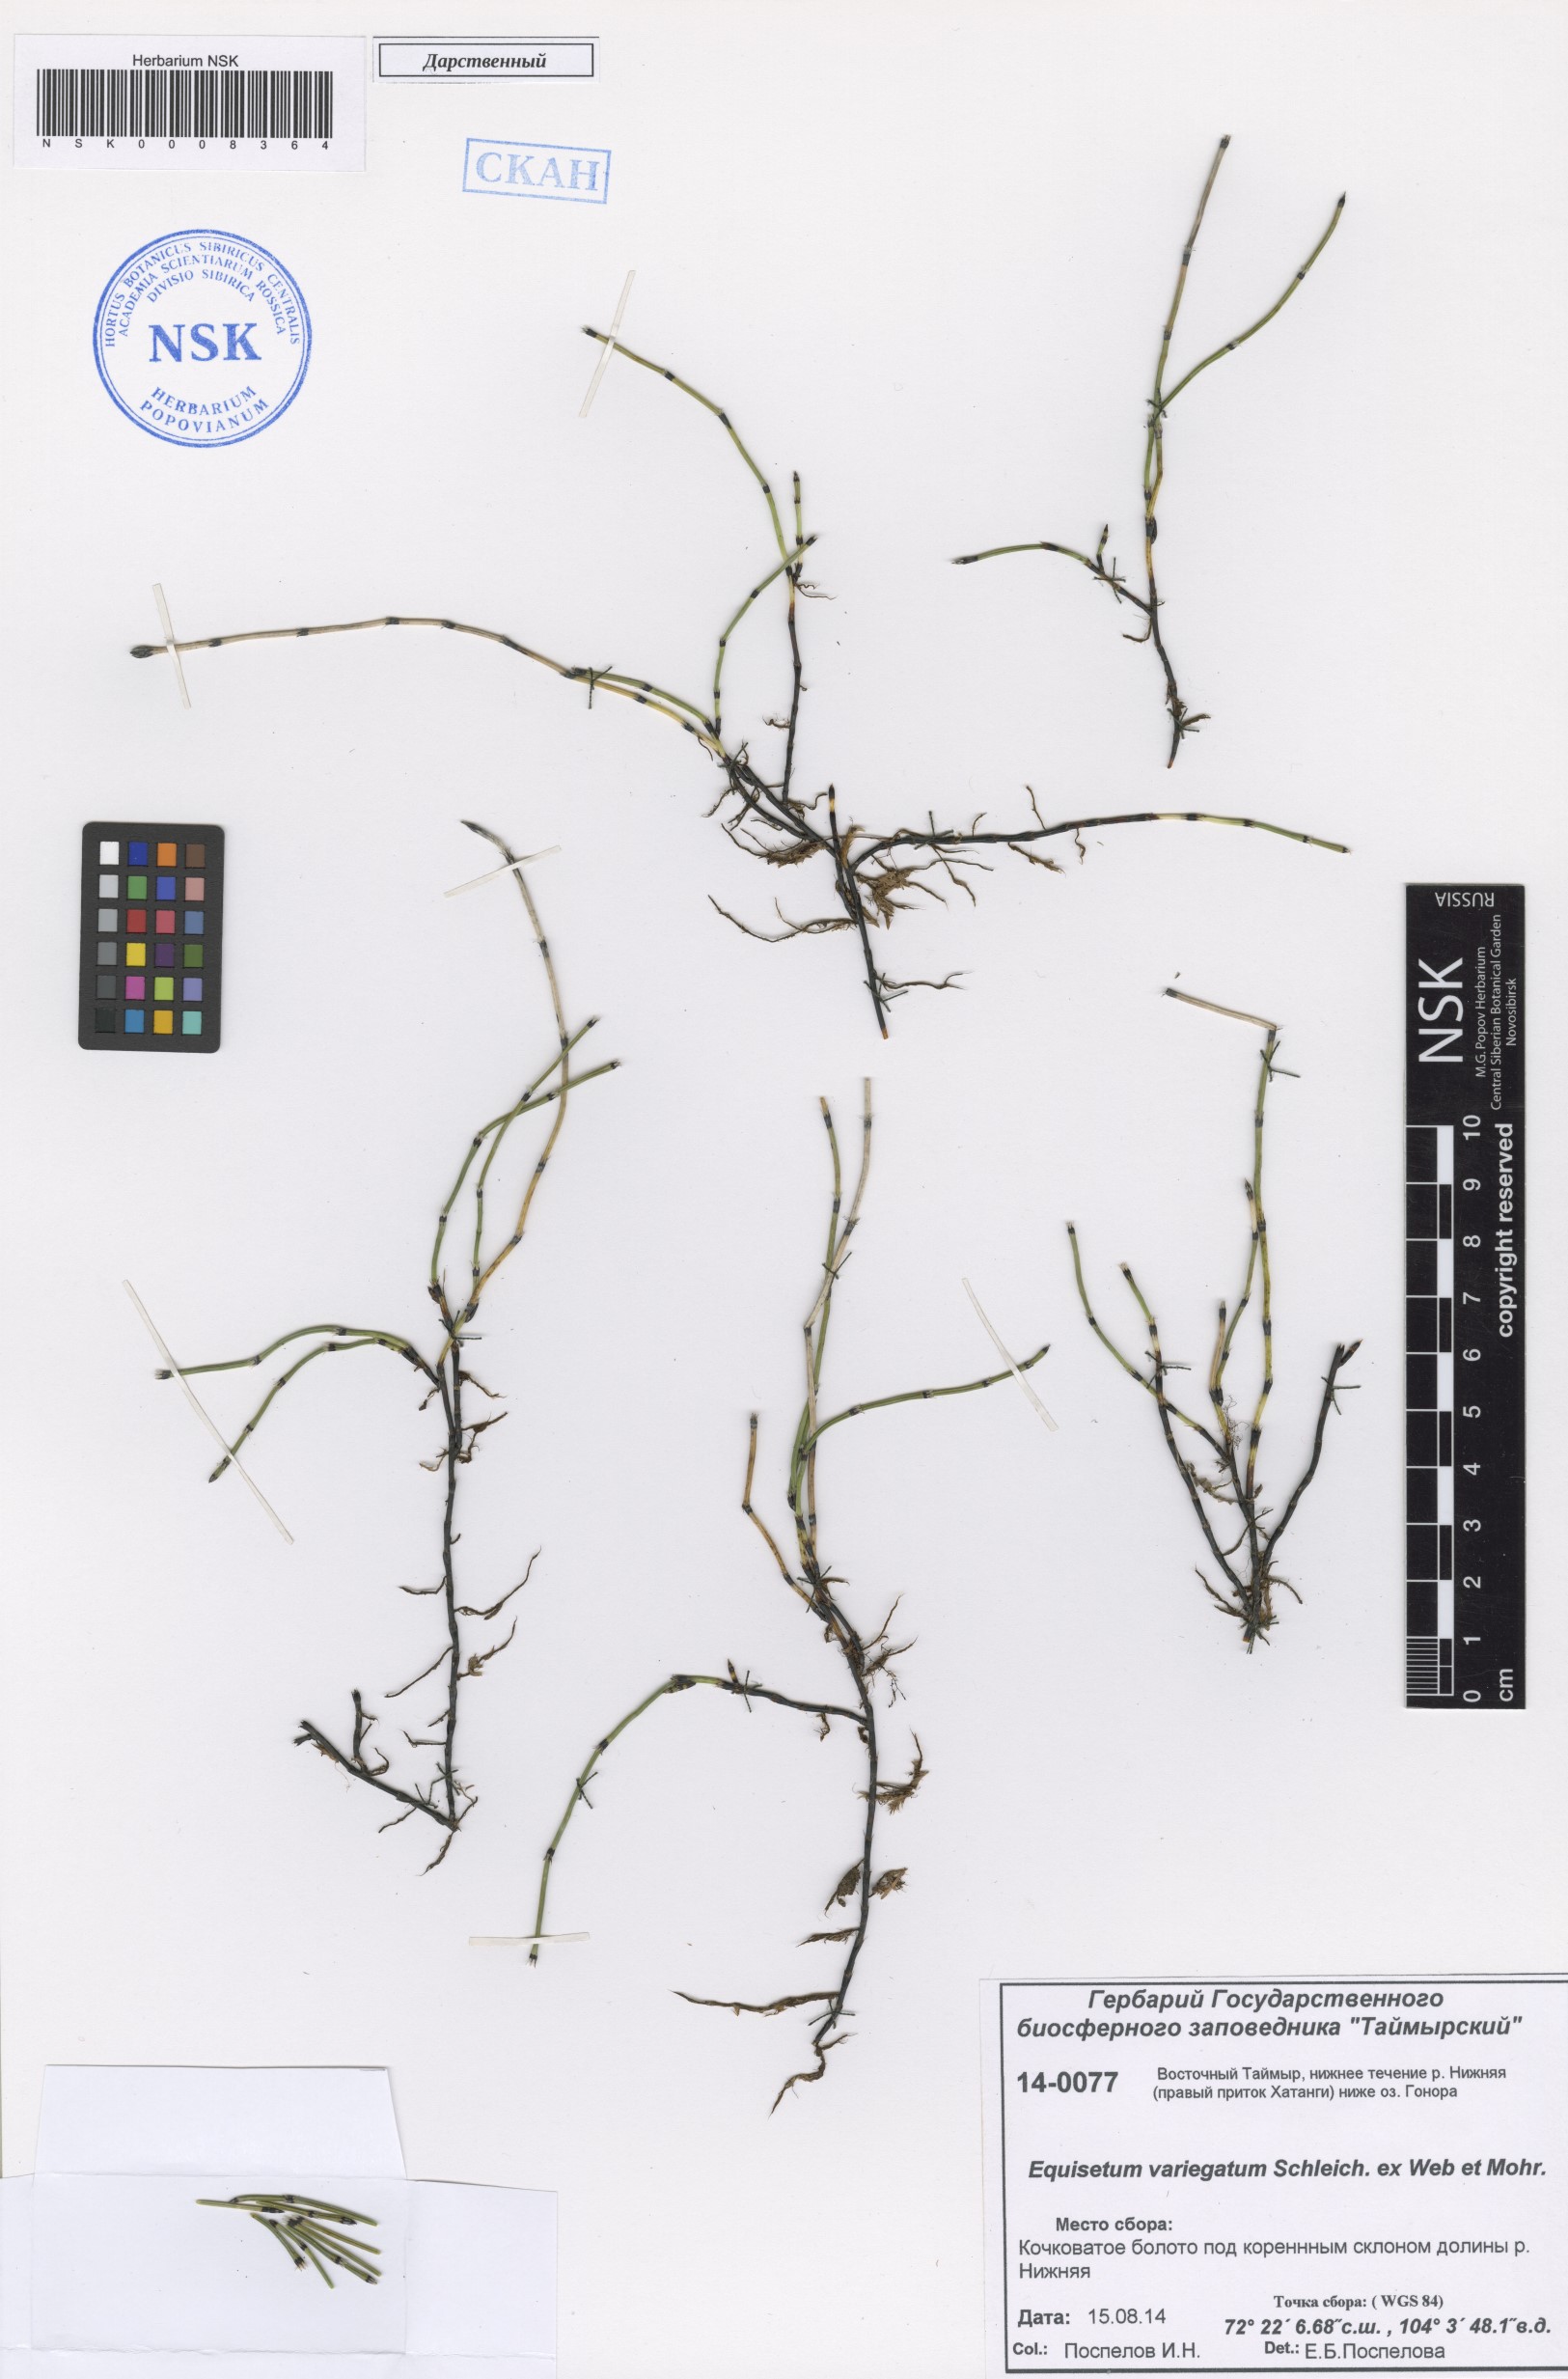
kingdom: Plantae
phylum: Tracheophyta
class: Polypodiopsida
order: Equisetales
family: Equisetaceae
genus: Equisetum
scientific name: Equisetum variegatum
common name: Variegated horsetail
